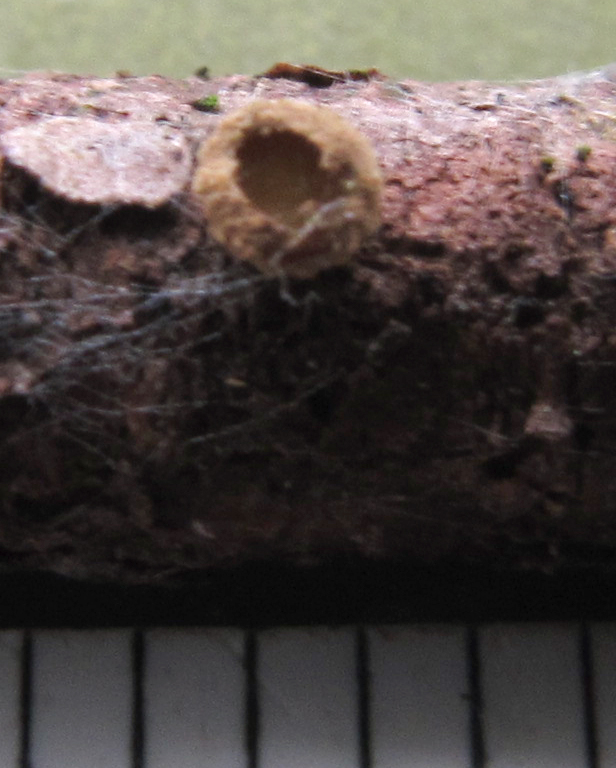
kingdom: Fungi
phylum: Ascomycota
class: Leotiomycetes
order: Helotiales
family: Cenangiaceae
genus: Velutarina
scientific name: Velutarina rufo-olivacea
